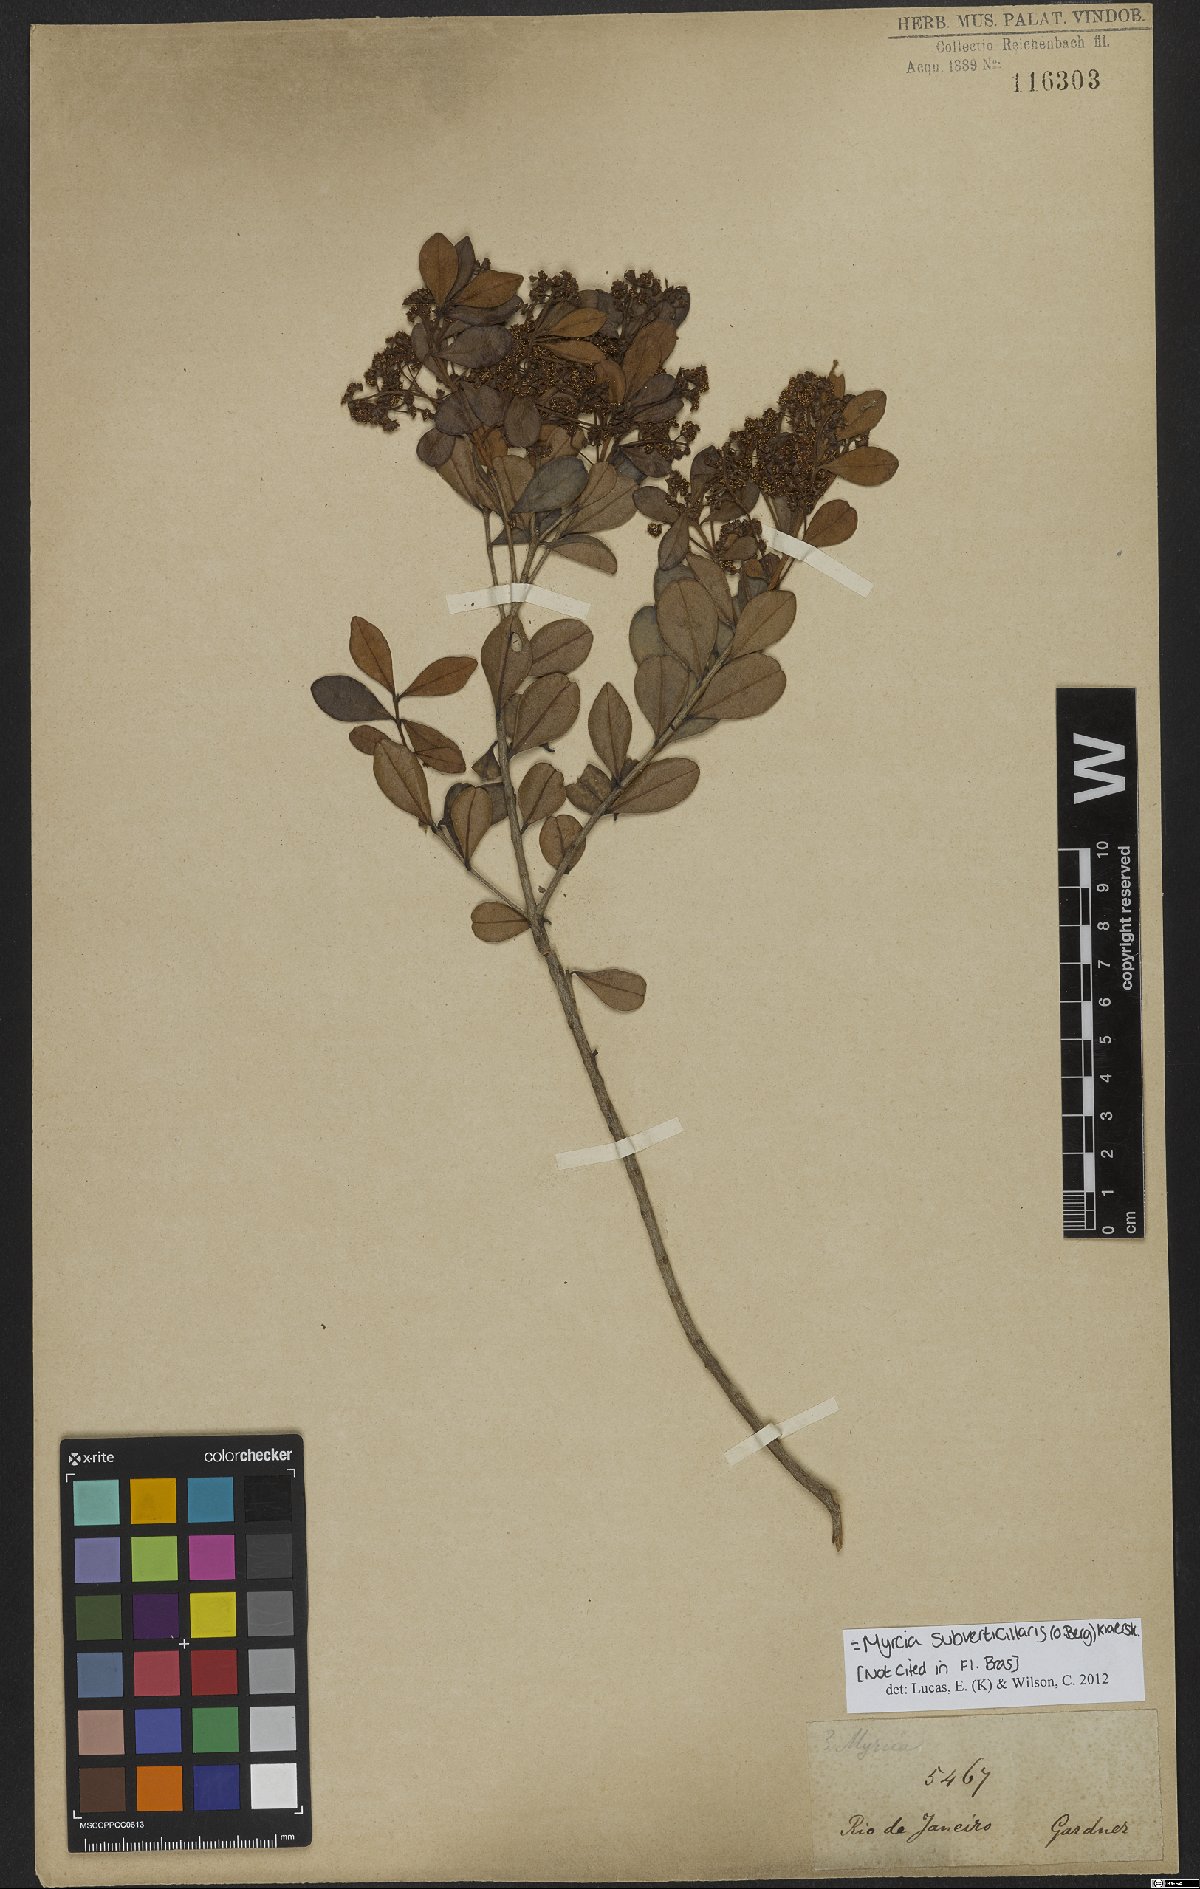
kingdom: Plantae
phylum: Tracheophyta
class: Magnoliopsida
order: Myrtales
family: Myrtaceae
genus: Myrcia
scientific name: Myrcia subverticillaris
